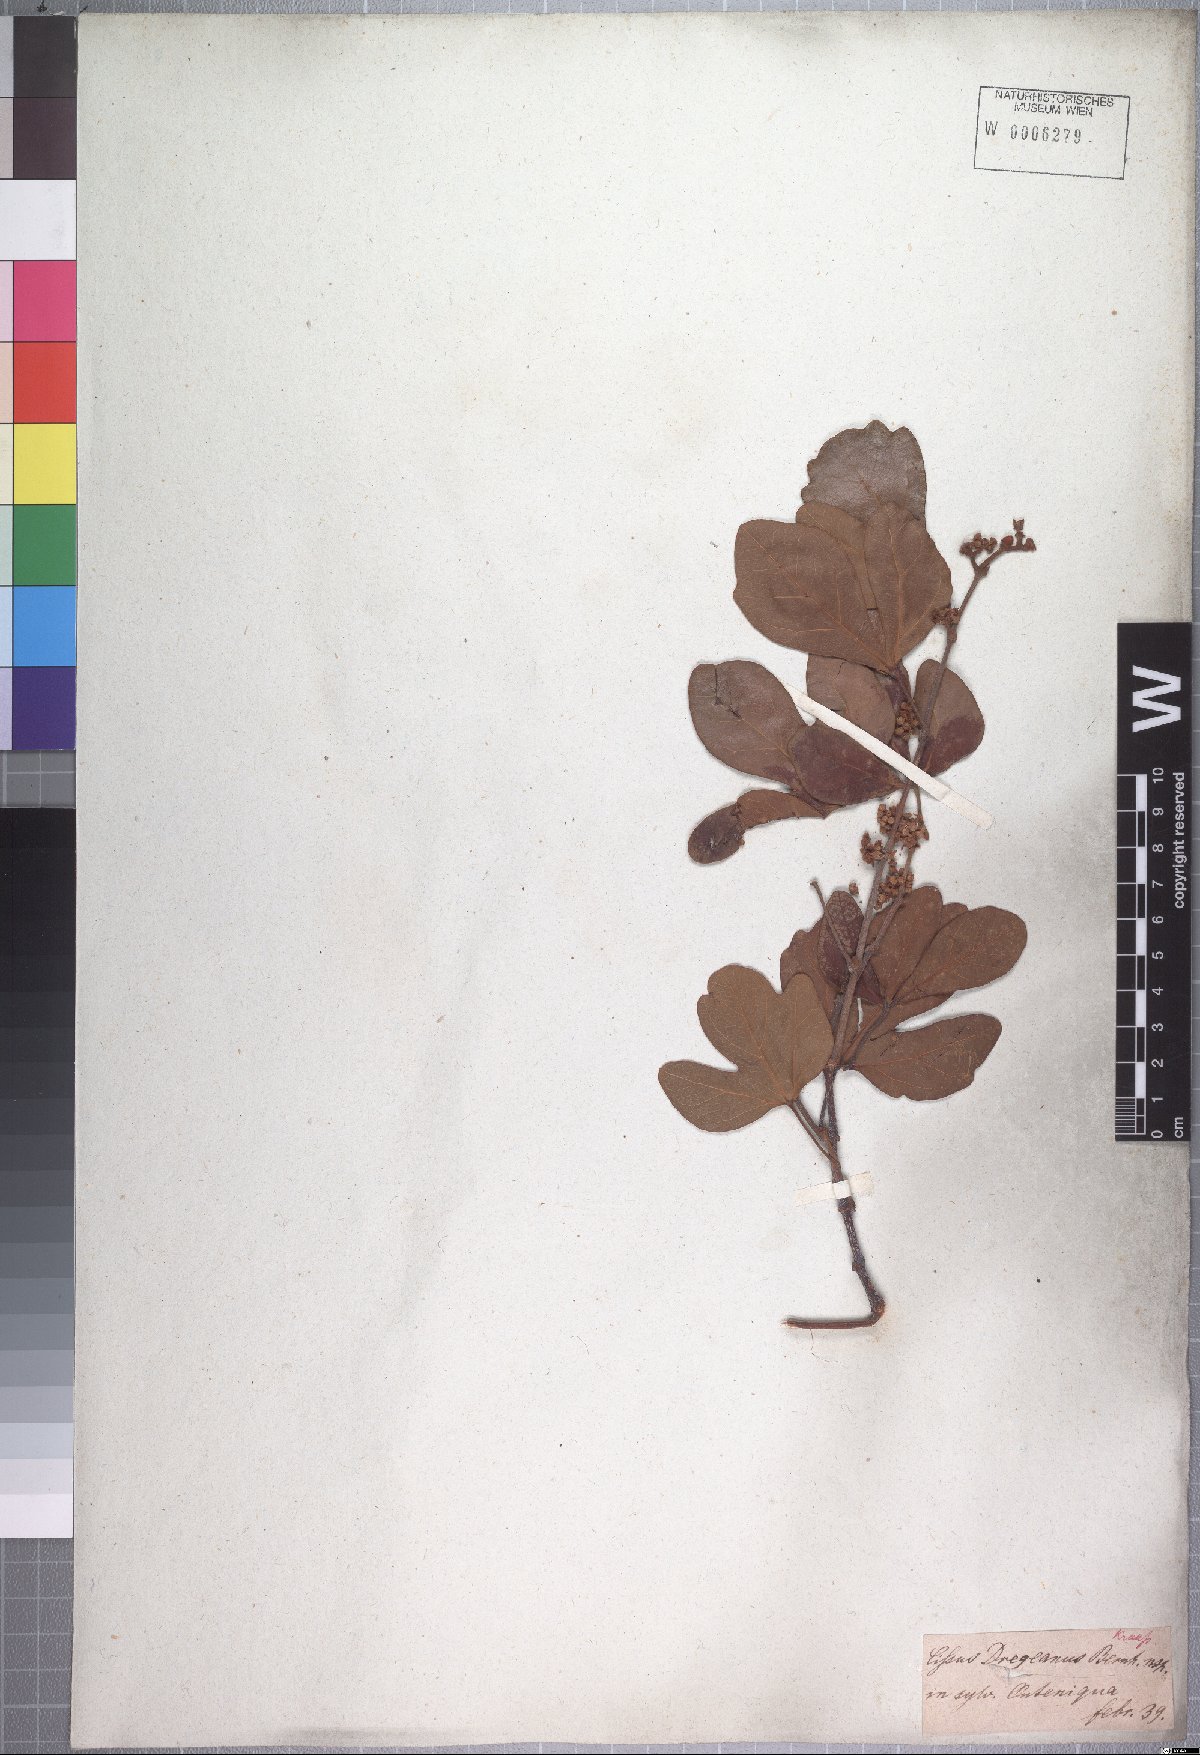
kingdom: Plantae
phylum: Tracheophyta
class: Magnoliopsida
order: Vitales
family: Vitaceae
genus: Rhoicissus
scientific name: Rhoicissus tomentosa
